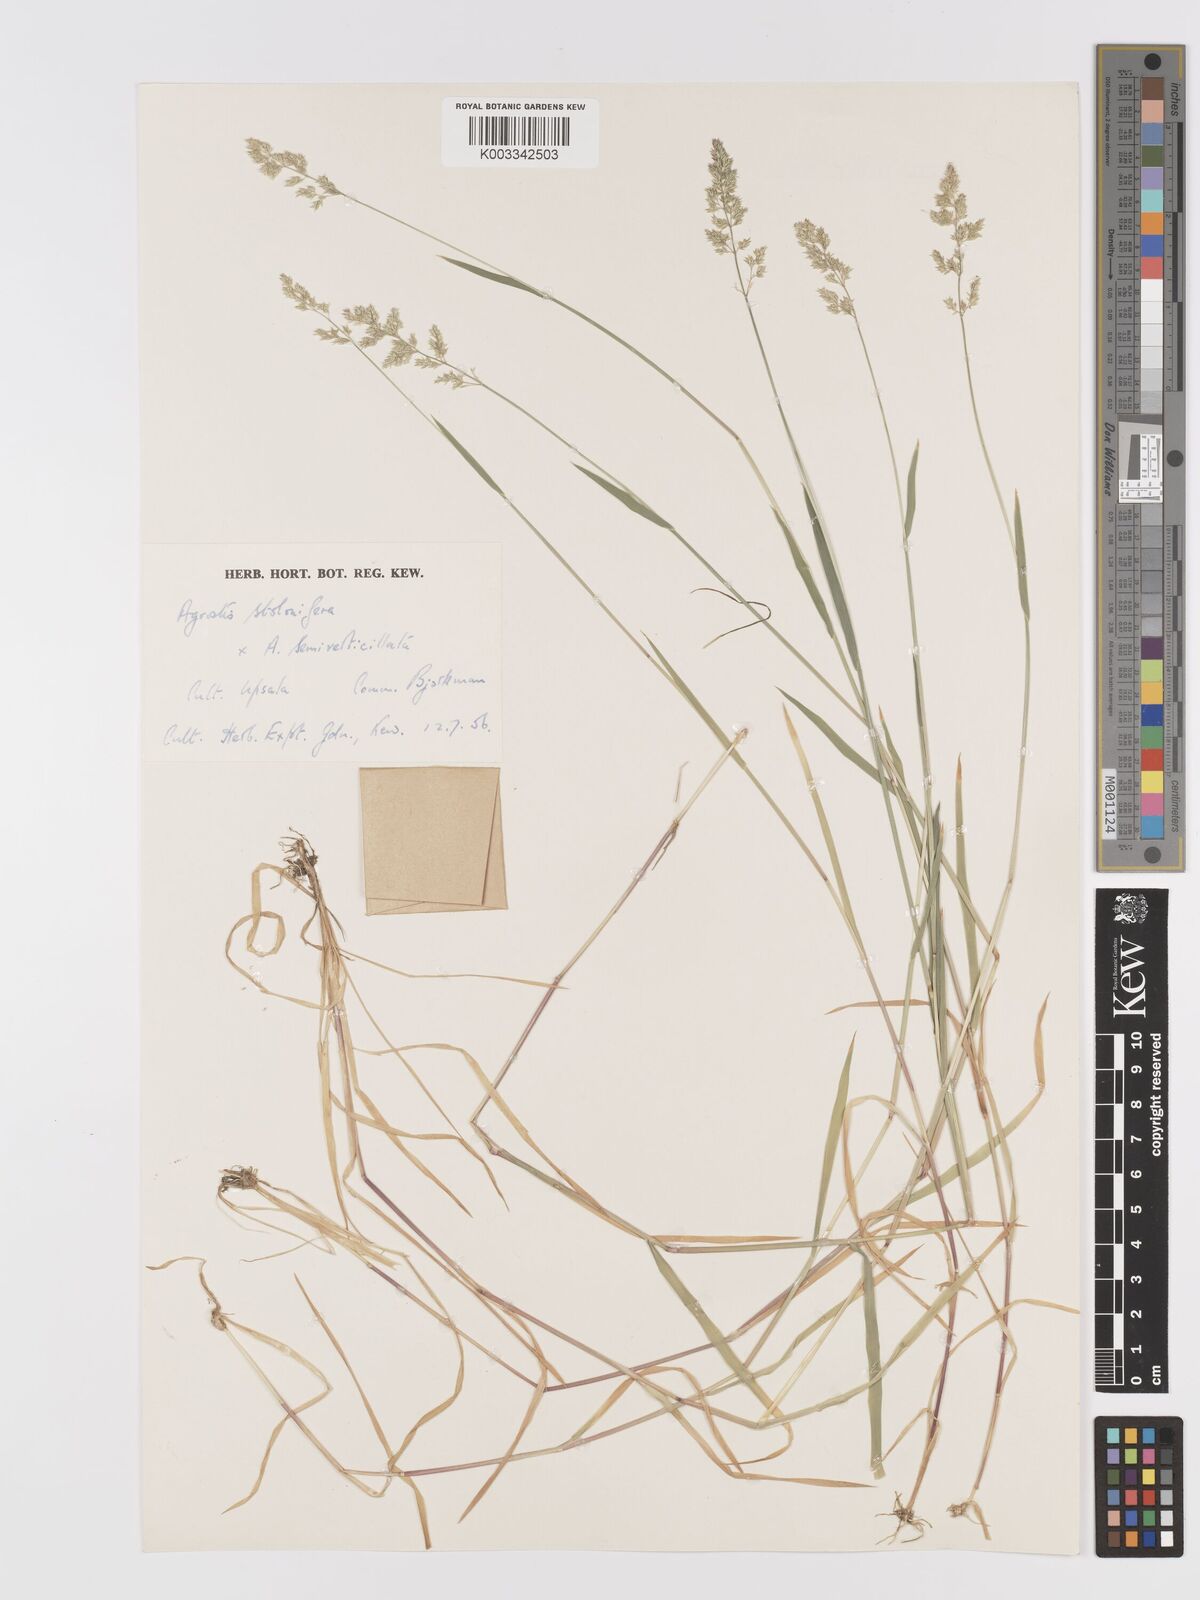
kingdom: Plantae
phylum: Tracheophyta
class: Liliopsida
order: Poales
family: Poaceae
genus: Agrostis
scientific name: Agrostis gigantea
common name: Black bent
